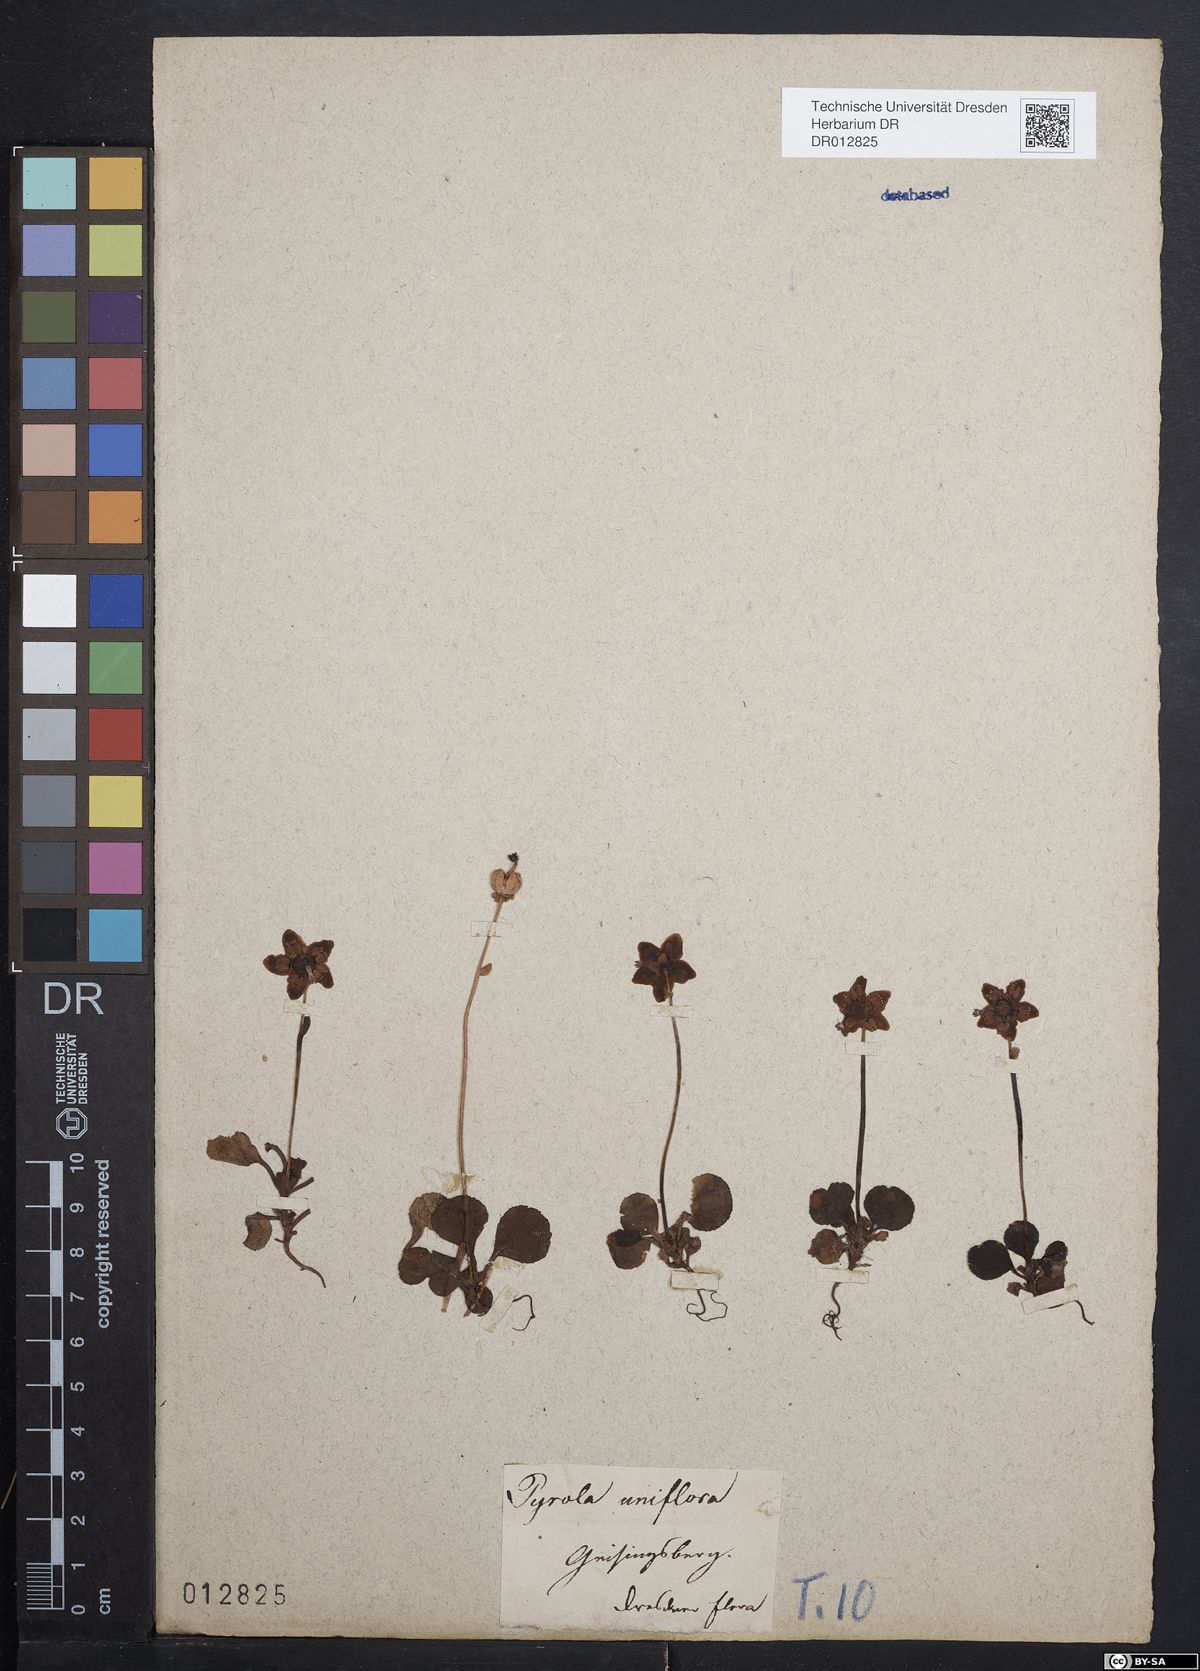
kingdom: Plantae
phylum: Tracheophyta
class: Magnoliopsida
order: Ericales
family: Ericaceae
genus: Moneses
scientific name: Moneses uniflora
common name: One-flowered wintergreen
